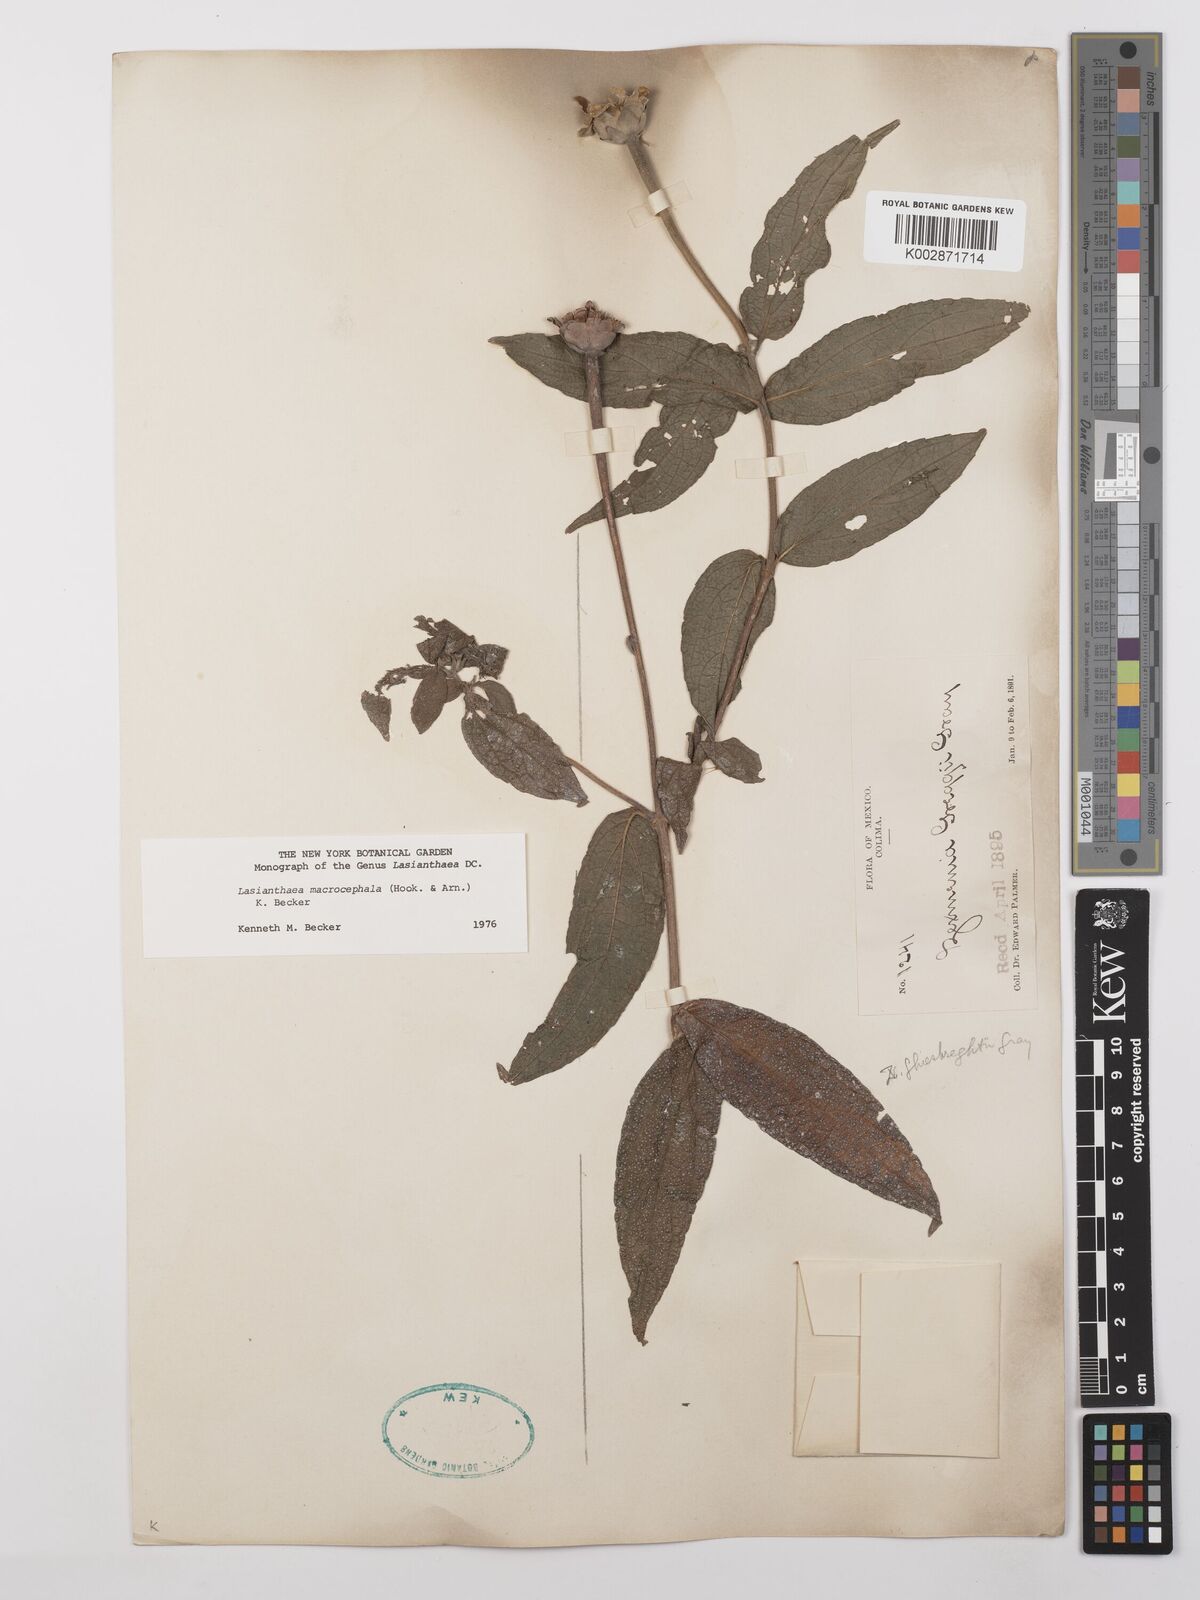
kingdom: Plantae
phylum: Tracheophyta
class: Magnoliopsida
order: Asterales
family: Asteraceae
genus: Lasianthaea
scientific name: Lasianthaea macrocephala
